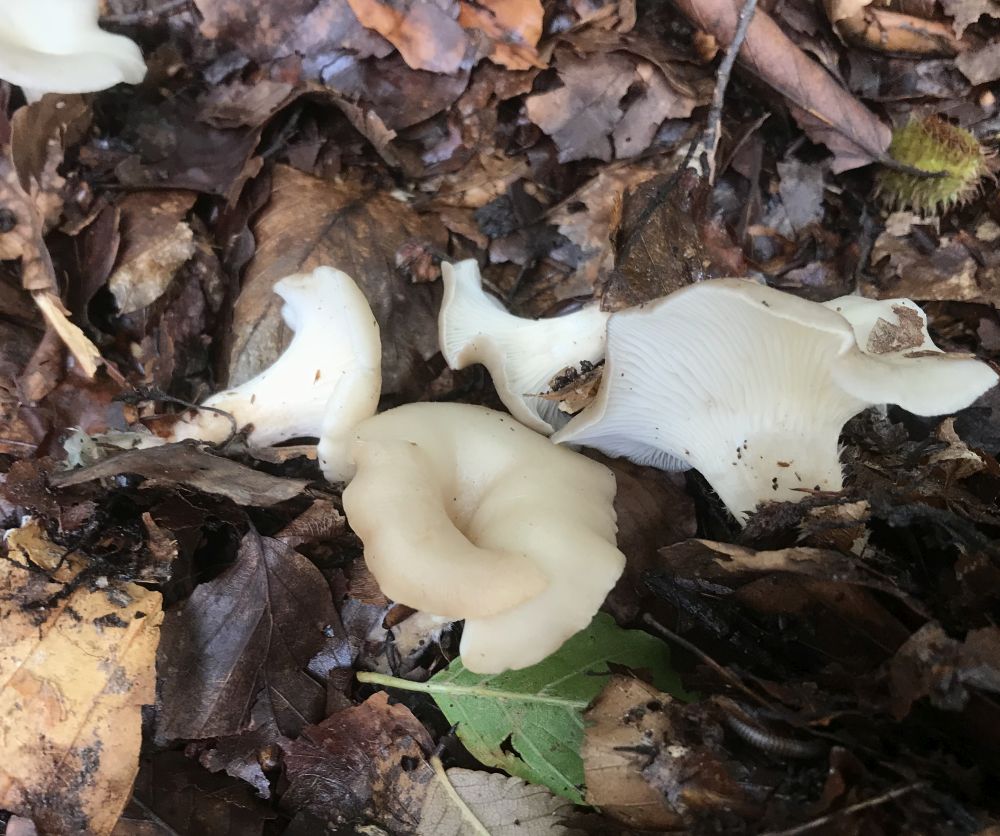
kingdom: Fungi
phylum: Basidiomycota
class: Agaricomycetes
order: Agaricales
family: Tricholomataceae
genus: Clitocybe
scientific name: Clitocybe phaeophthalma
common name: stinkende tragthat
